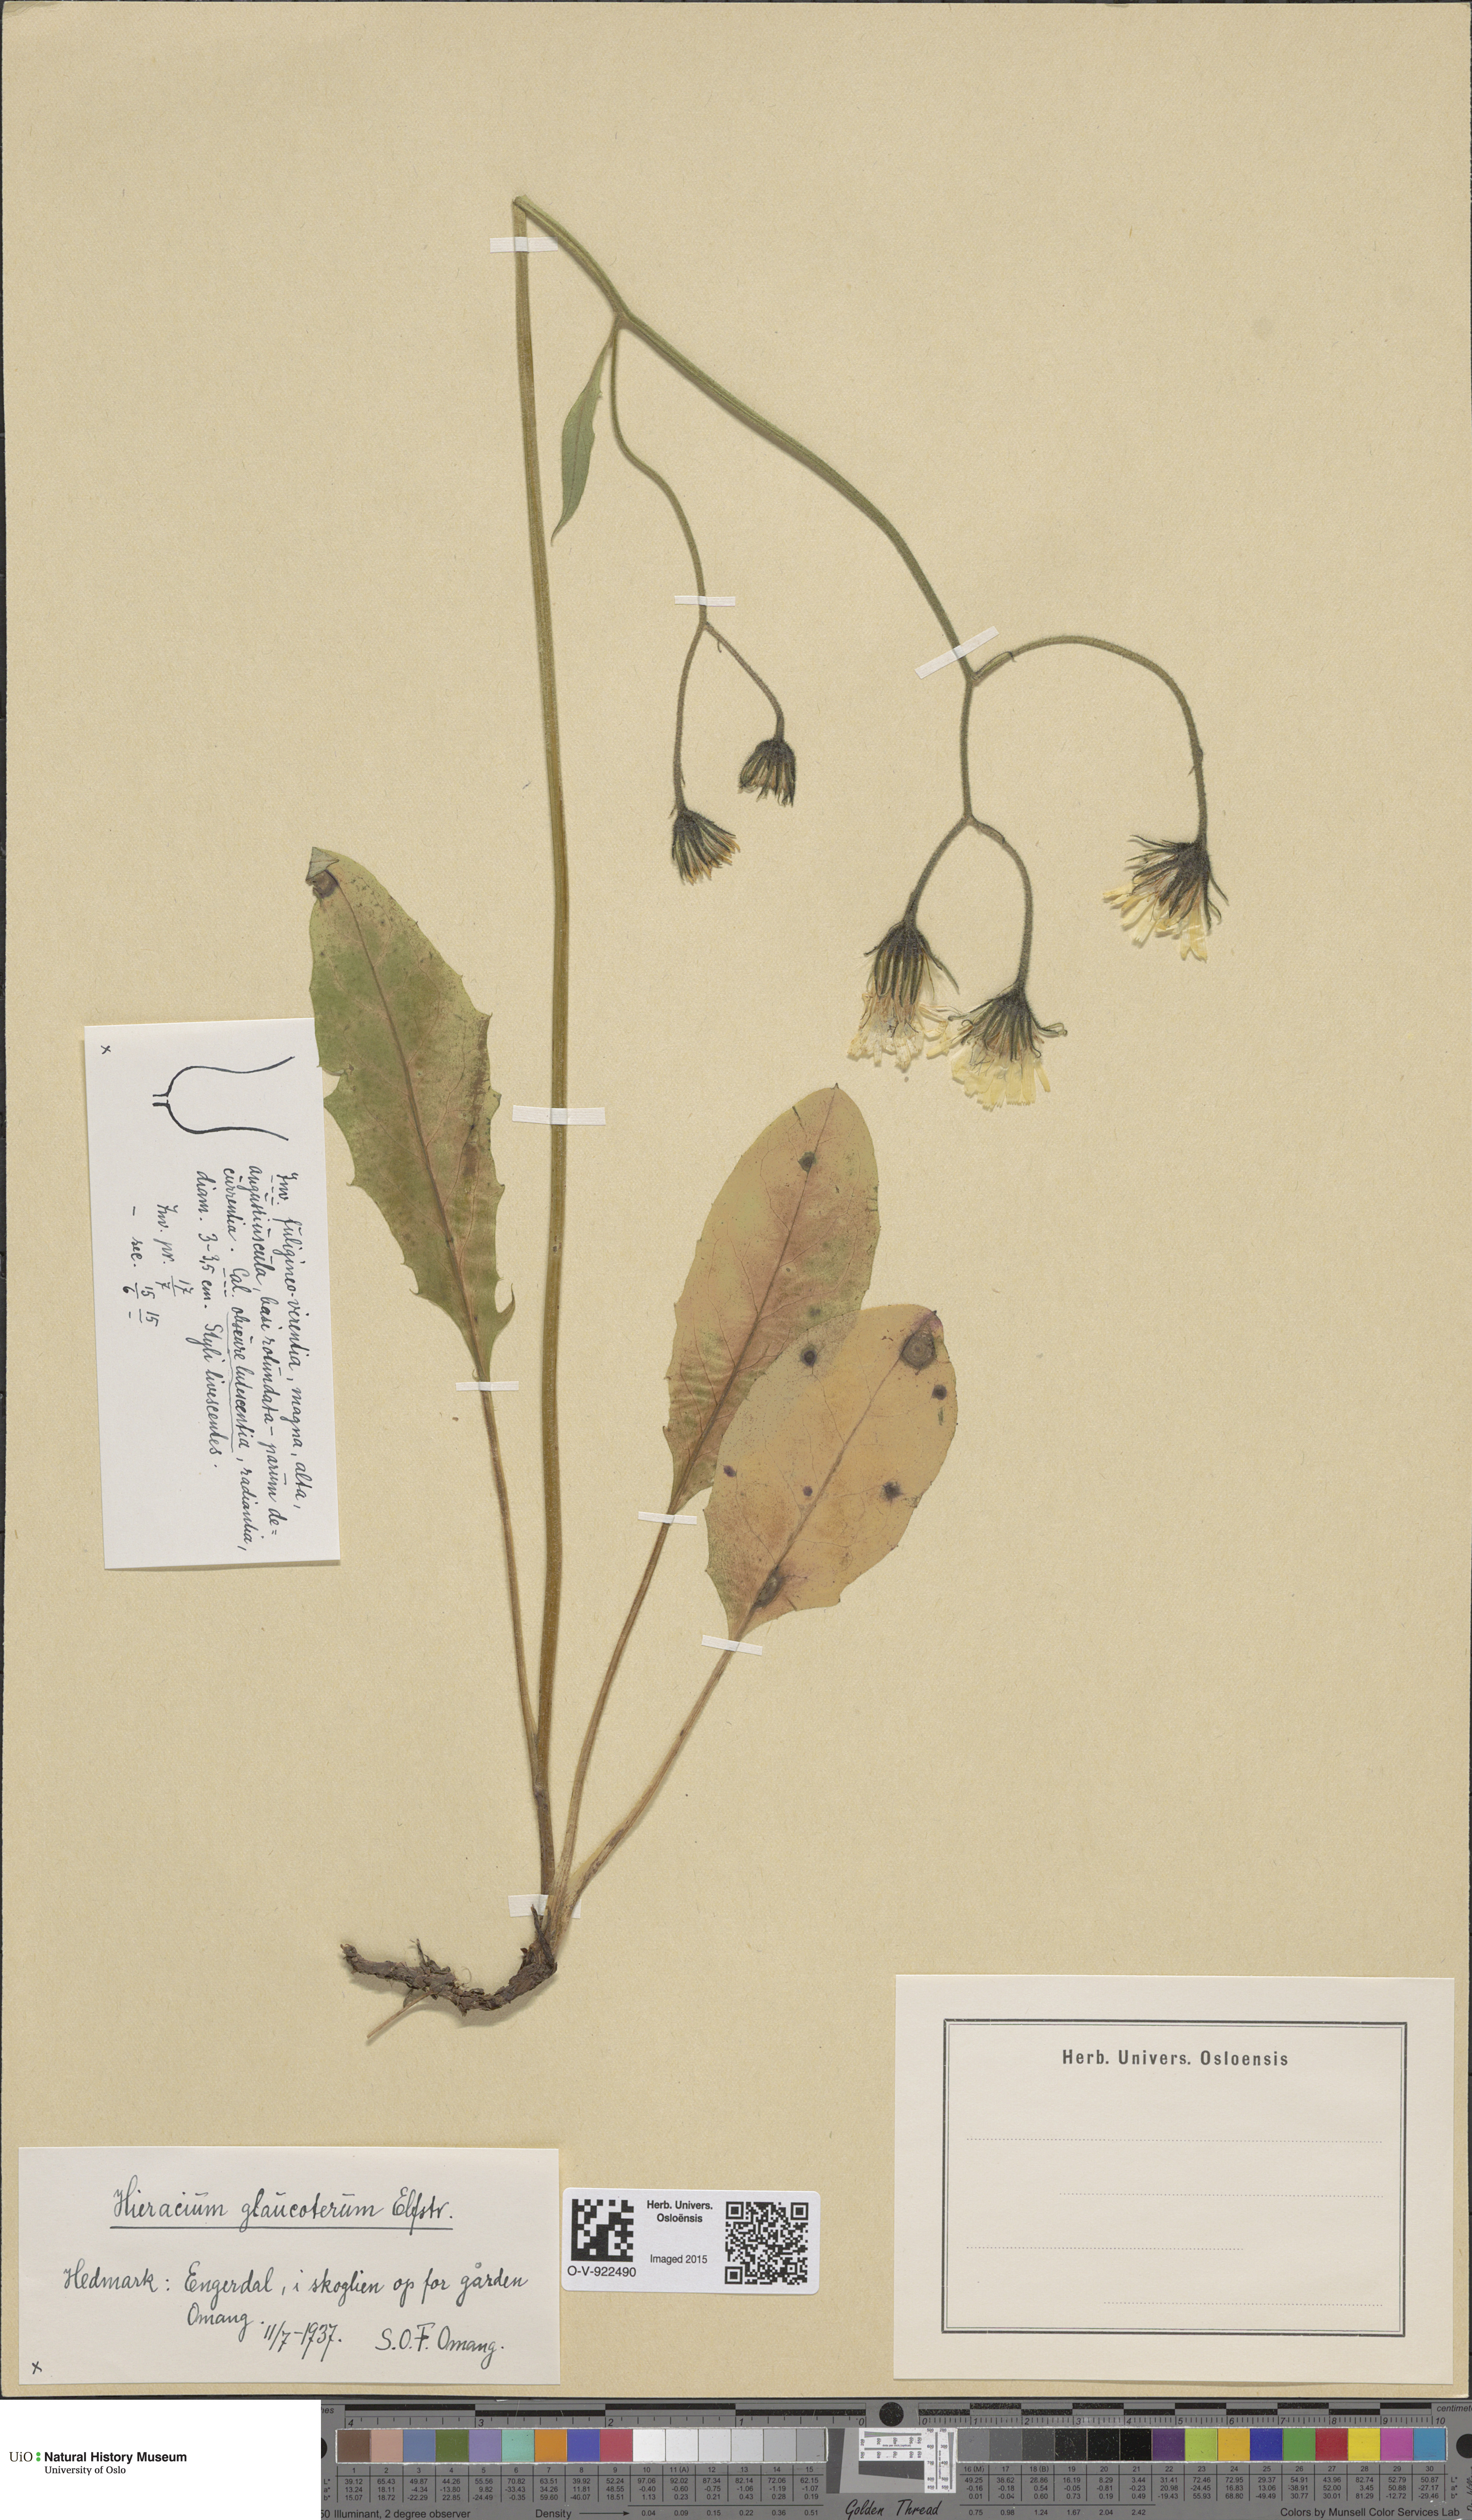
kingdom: Plantae
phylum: Tracheophyta
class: Magnoliopsida
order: Asterales
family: Asteraceae
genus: Hieracium
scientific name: Hieracium
